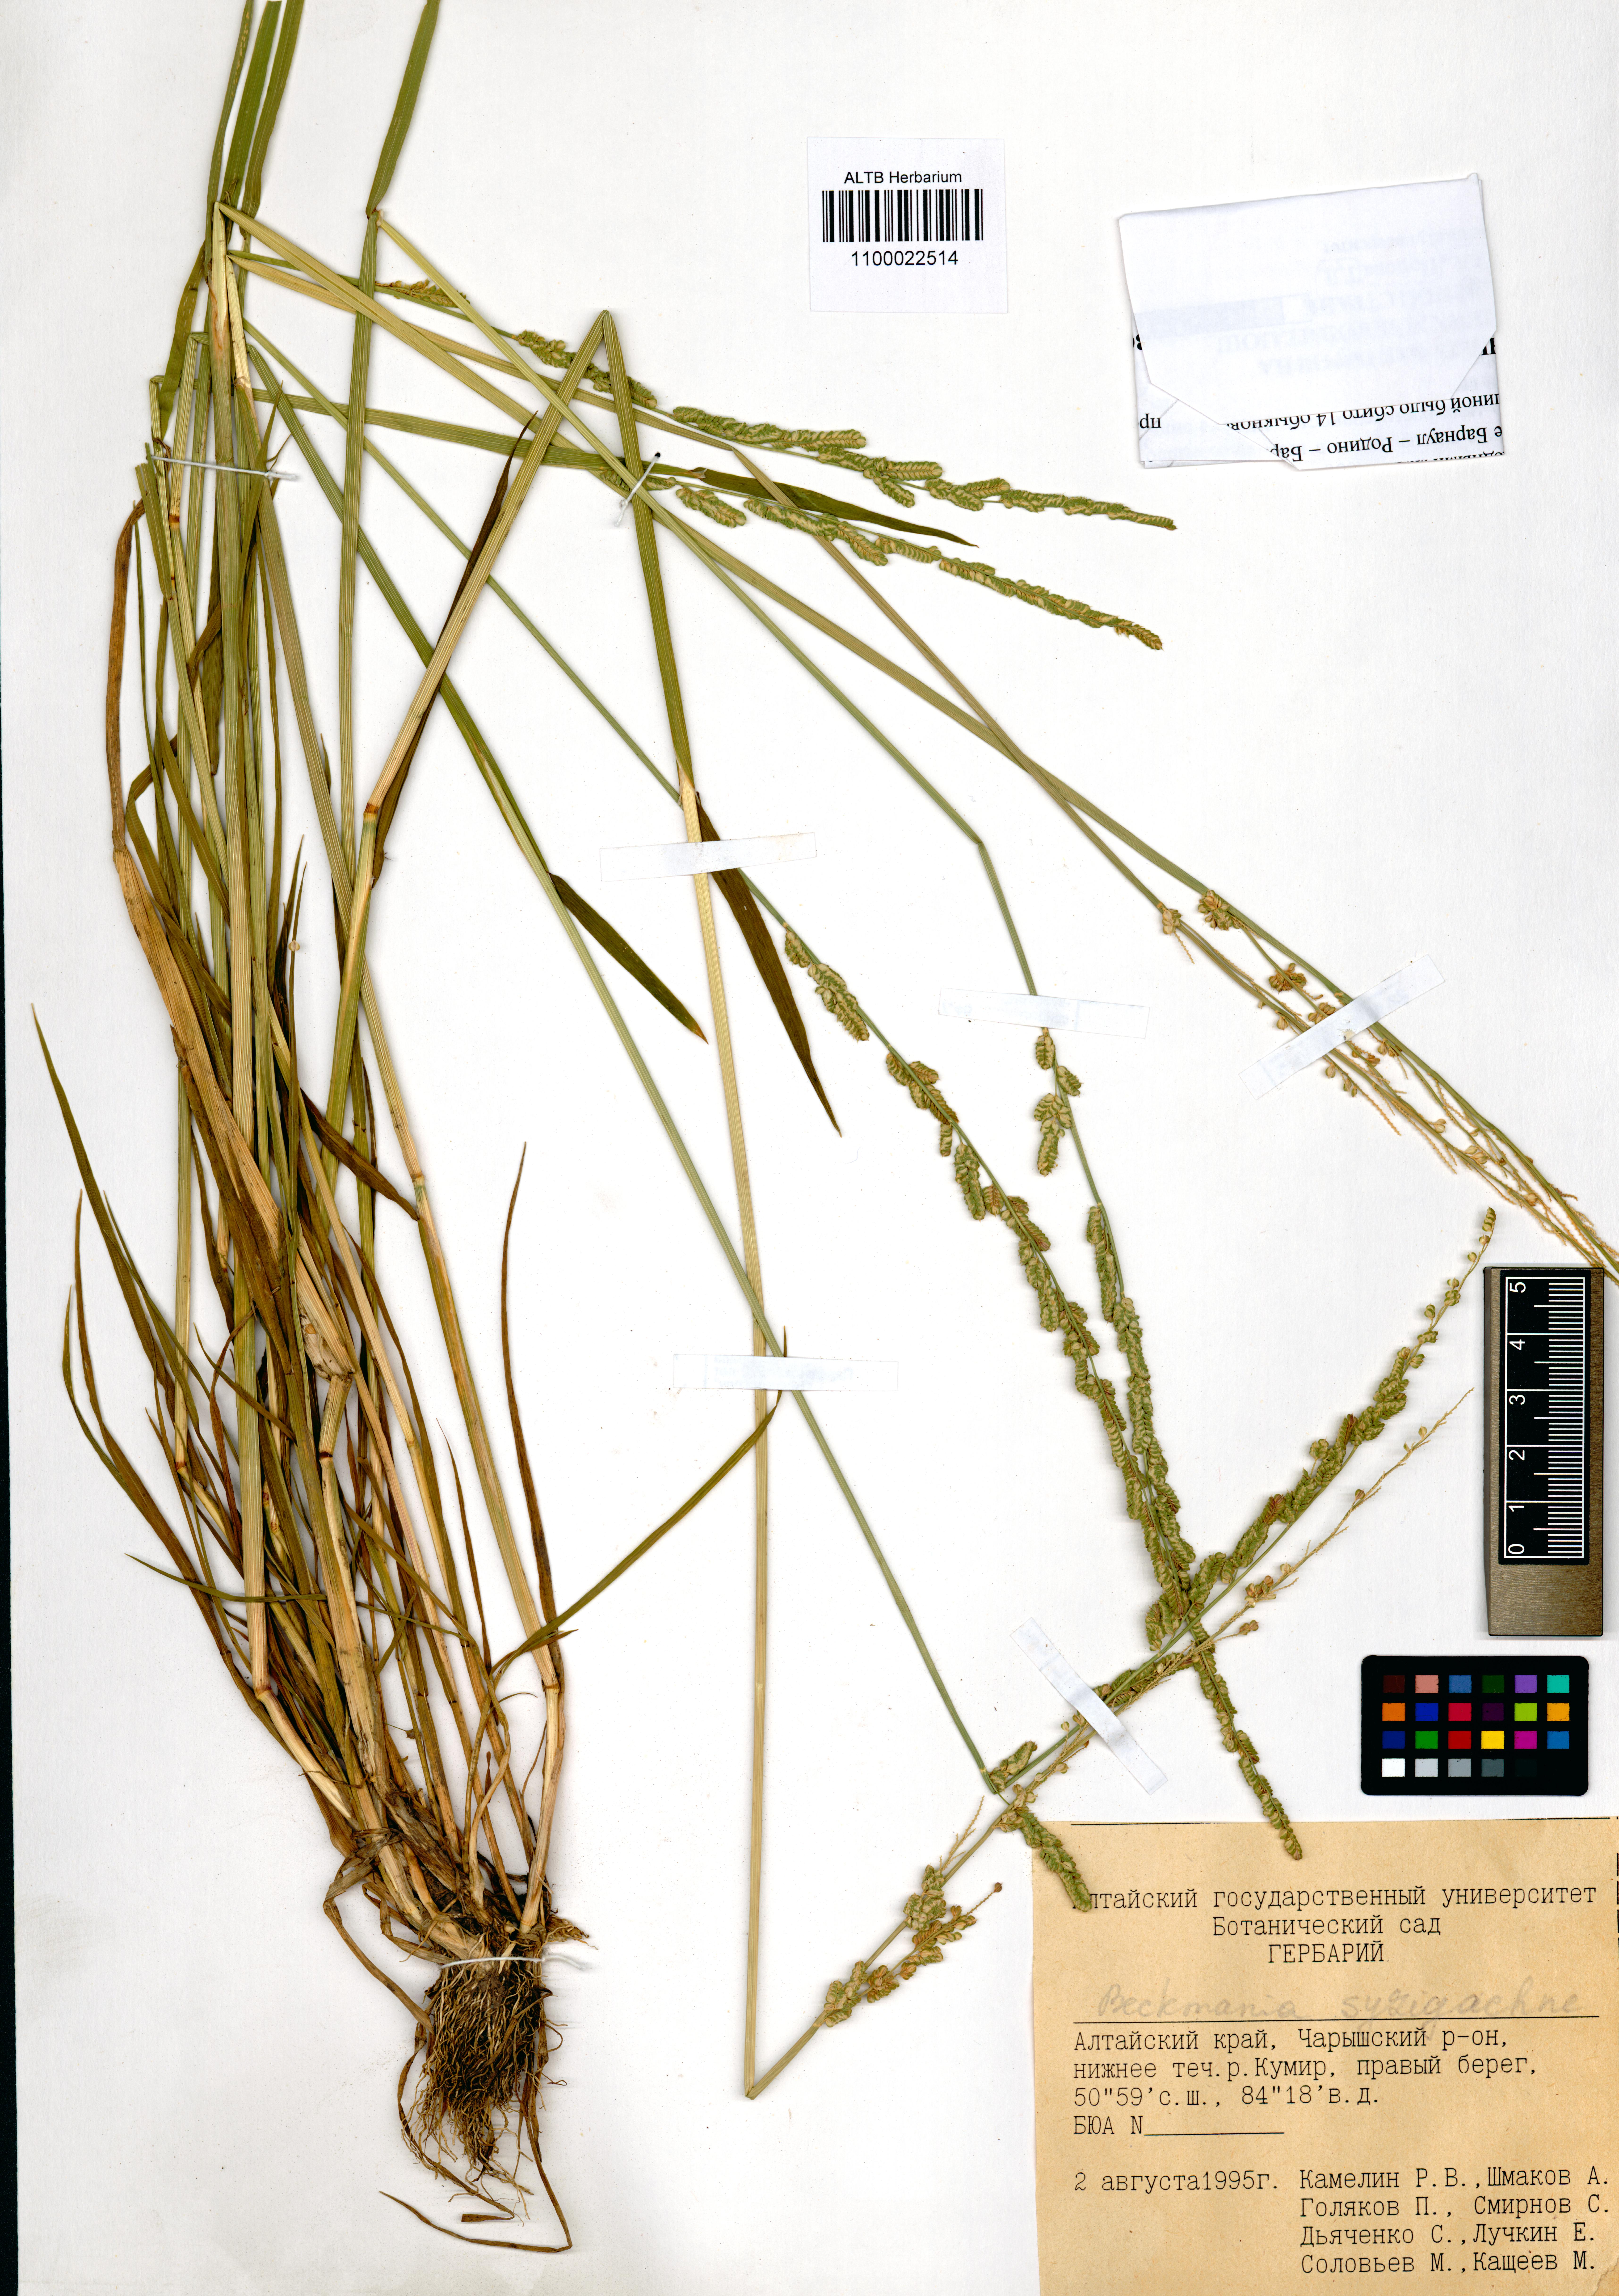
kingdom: Plantae
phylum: Tracheophyta
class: Liliopsida
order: Poales
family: Poaceae
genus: Beckmannia
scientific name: Beckmannia syzigachne
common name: American slough-grass
